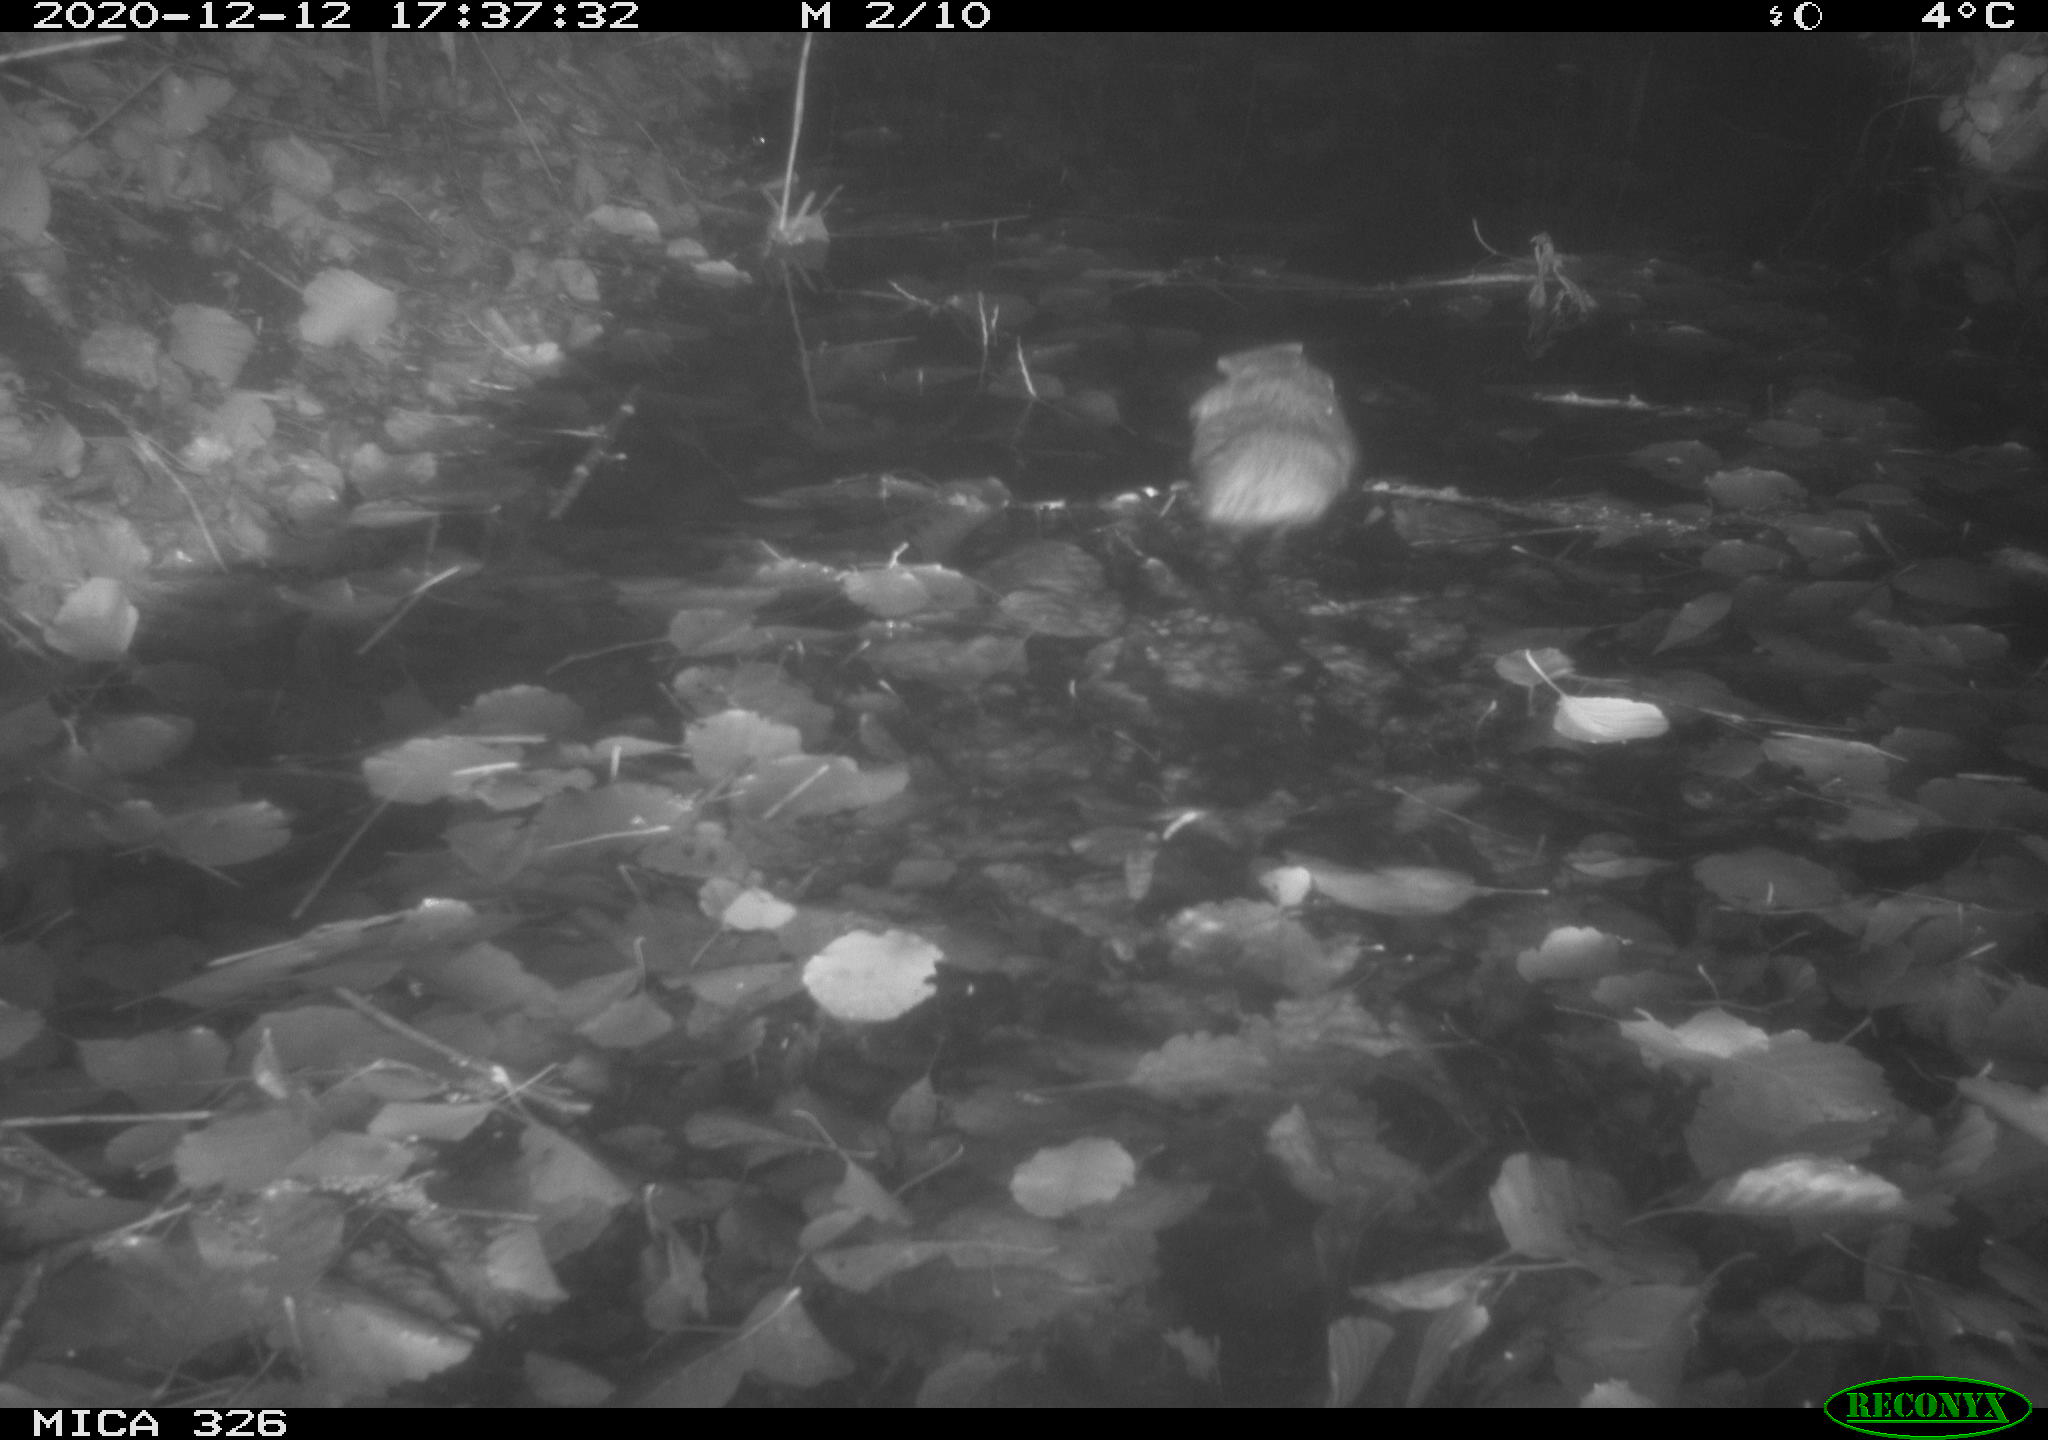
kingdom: Animalia
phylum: Chordata
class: Mammalia
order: Rodentia
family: Cricetidae
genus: Ondatra
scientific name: Ondatra zibethicus
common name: Muskrat
